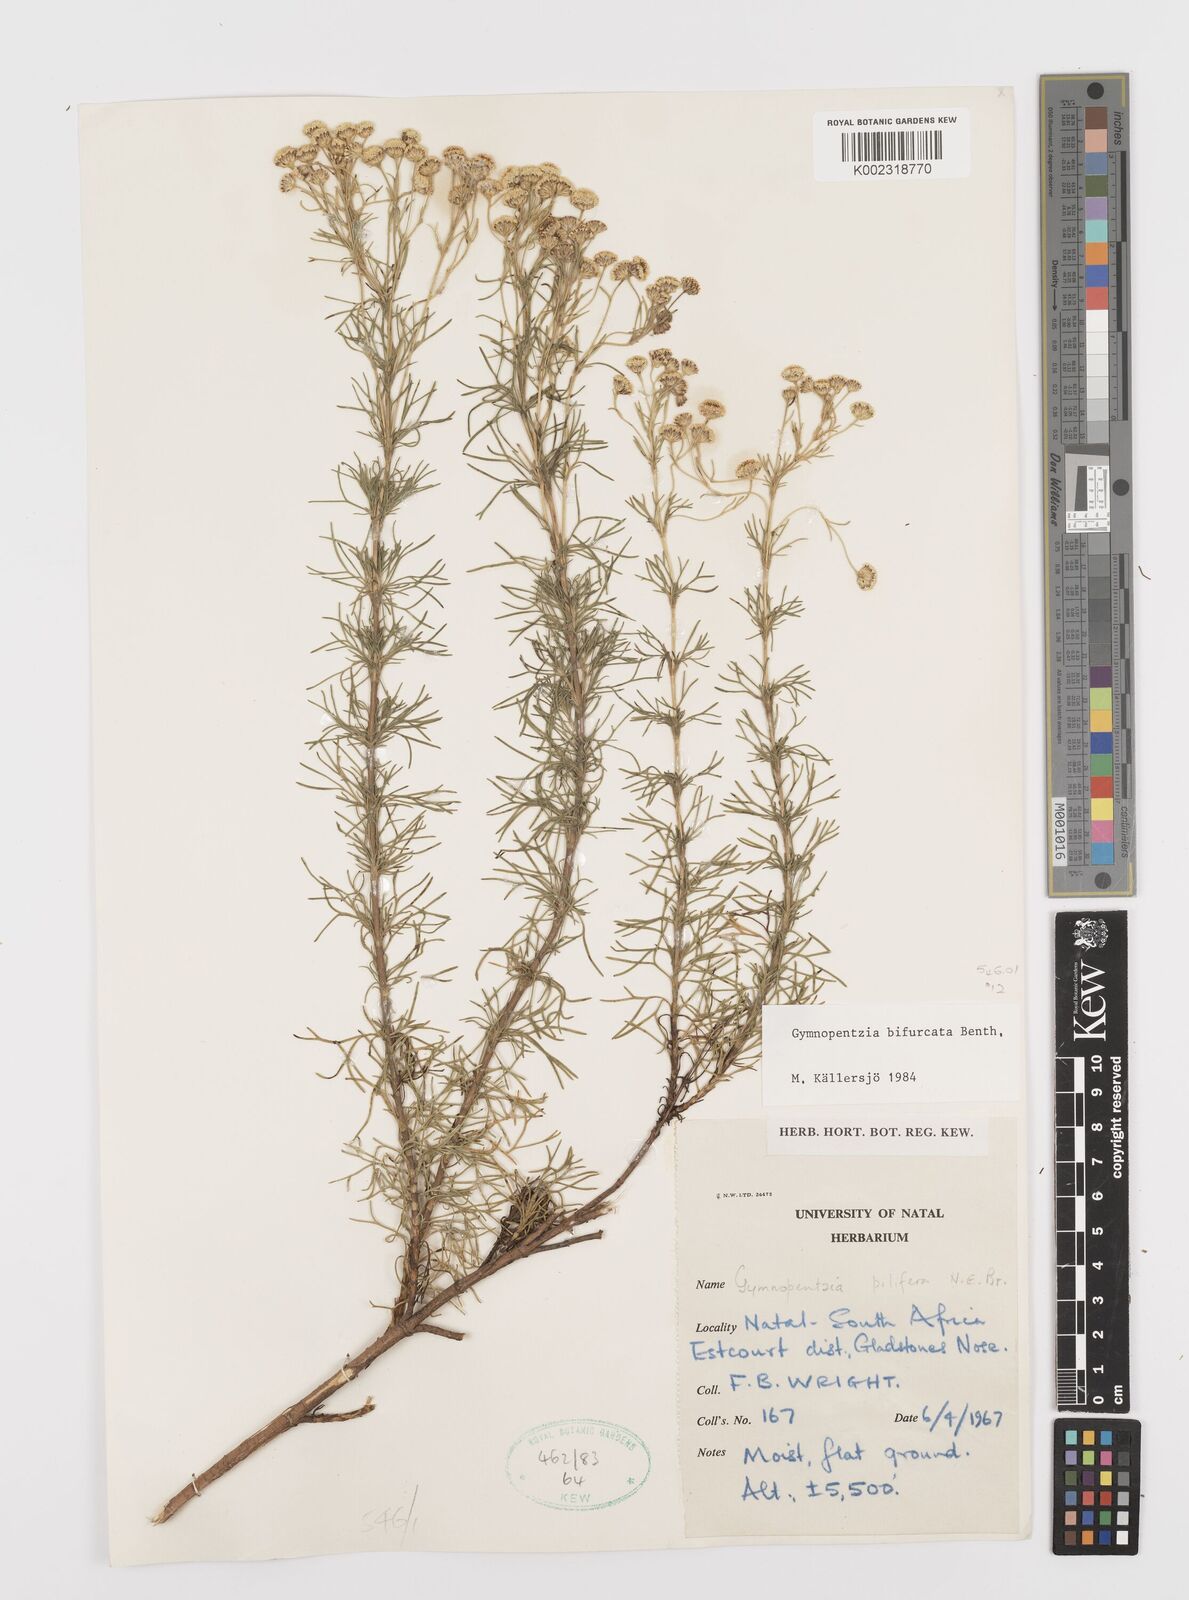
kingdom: Plantae
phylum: Tracheophyta
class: Magnoliopsida
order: Asterales
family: Asteraceae
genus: Gymnopentzia
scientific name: Gymnopentzia bifurcata
